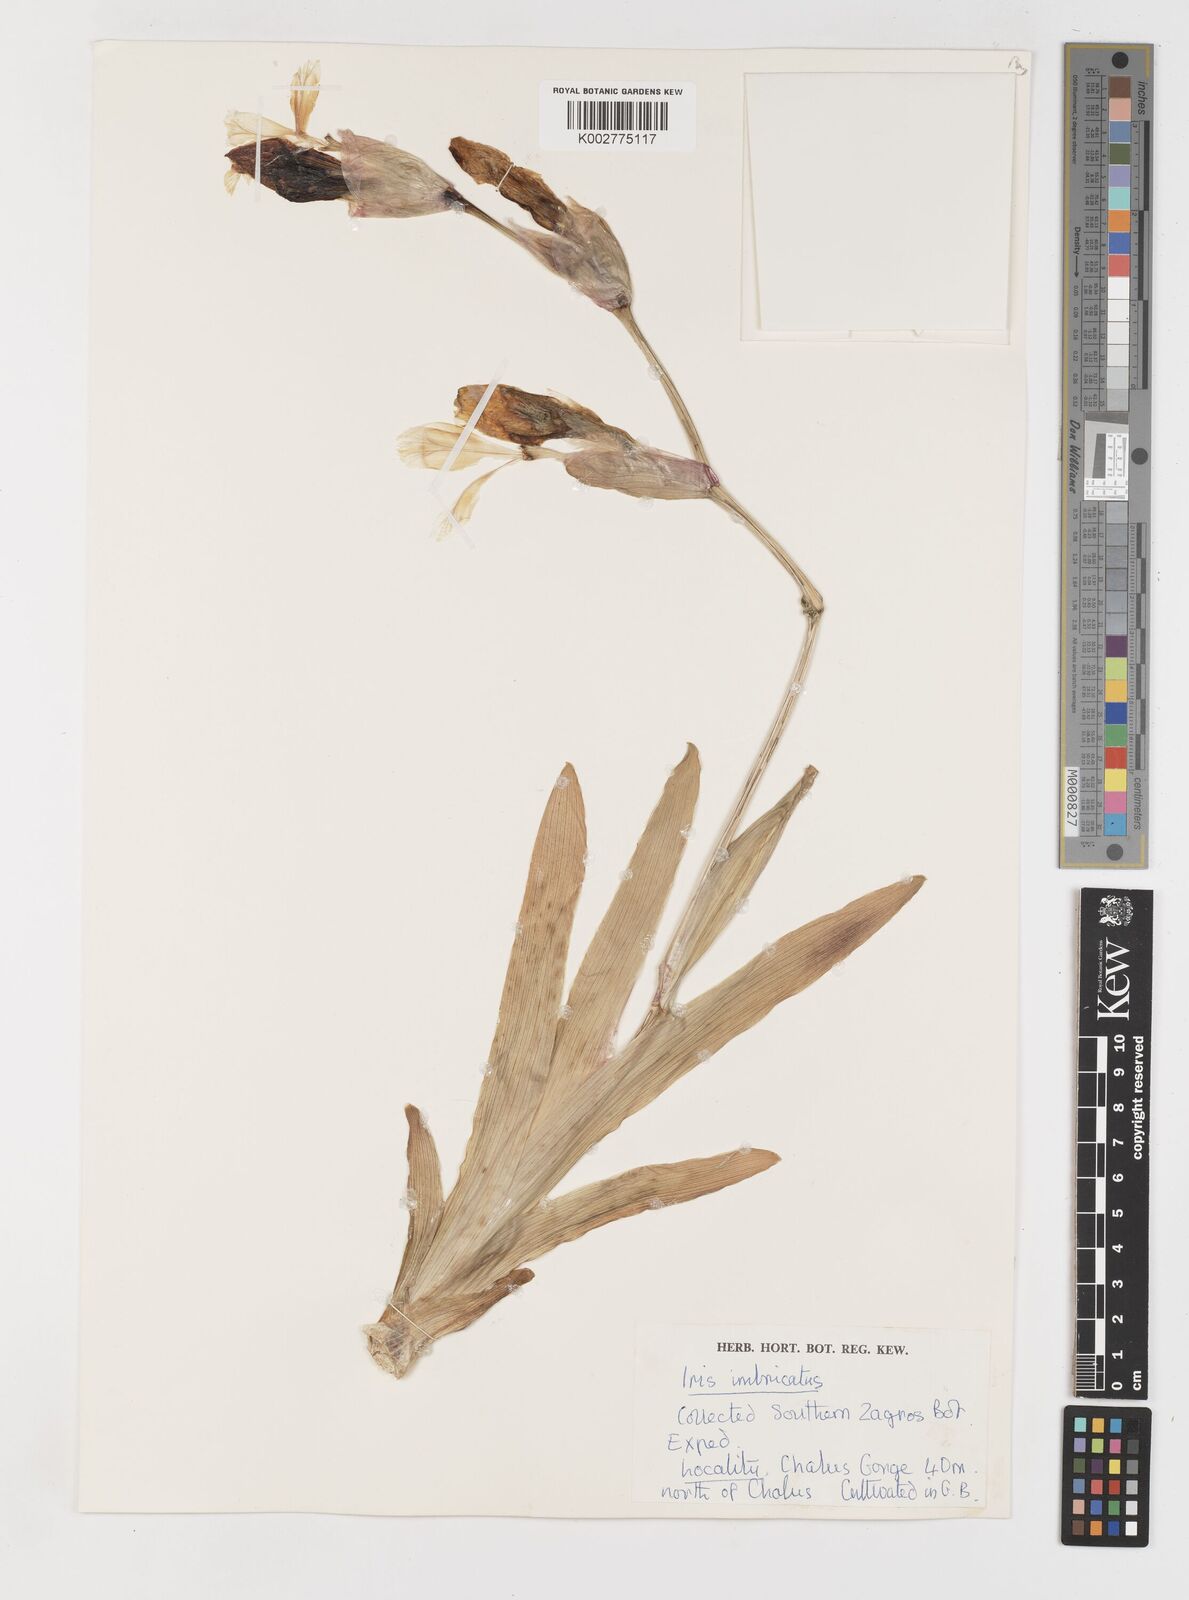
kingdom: Plantae
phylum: Tracheophyta
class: Liliopsida
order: Asparagales
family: Iridaceae
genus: Iris
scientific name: Iris imbricata
